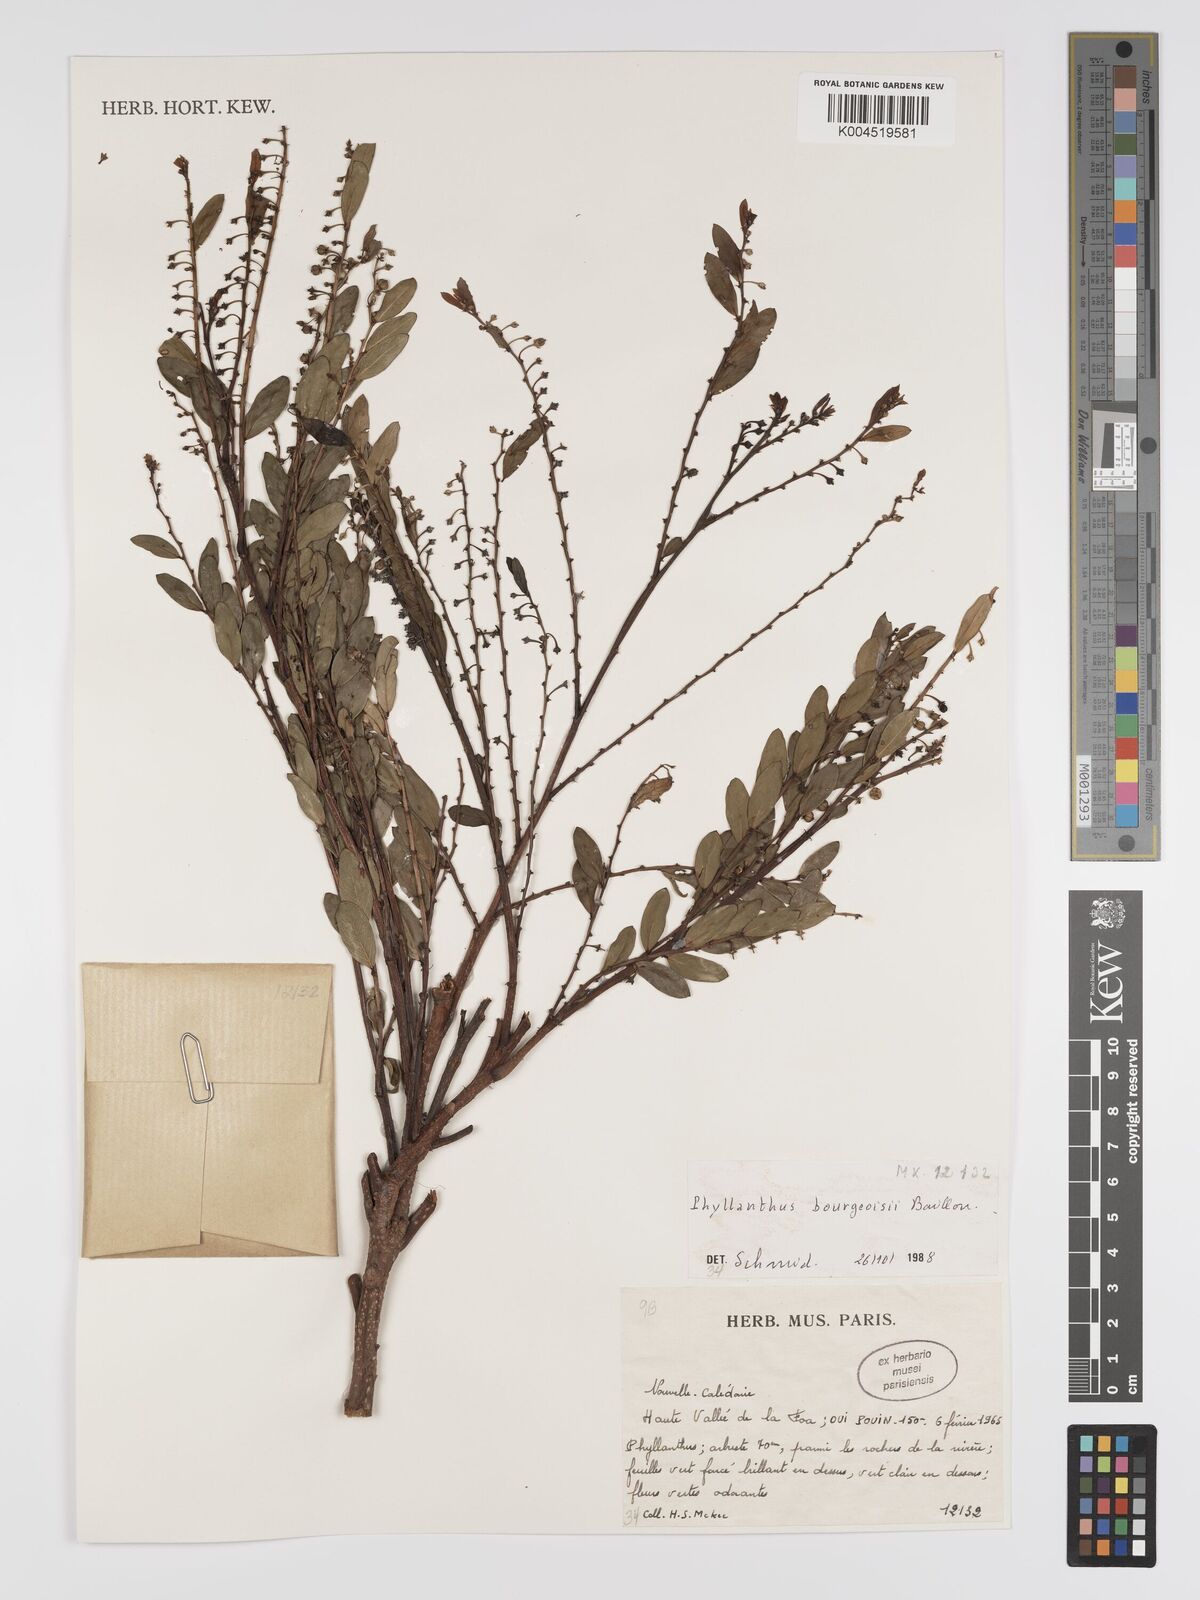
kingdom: Plantae
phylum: Tracheophyta
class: Magnoliopsida
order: Malpighiales
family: Phyllanthaceae
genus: Phyllanthus
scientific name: Phyllanthus bourgeoisii
